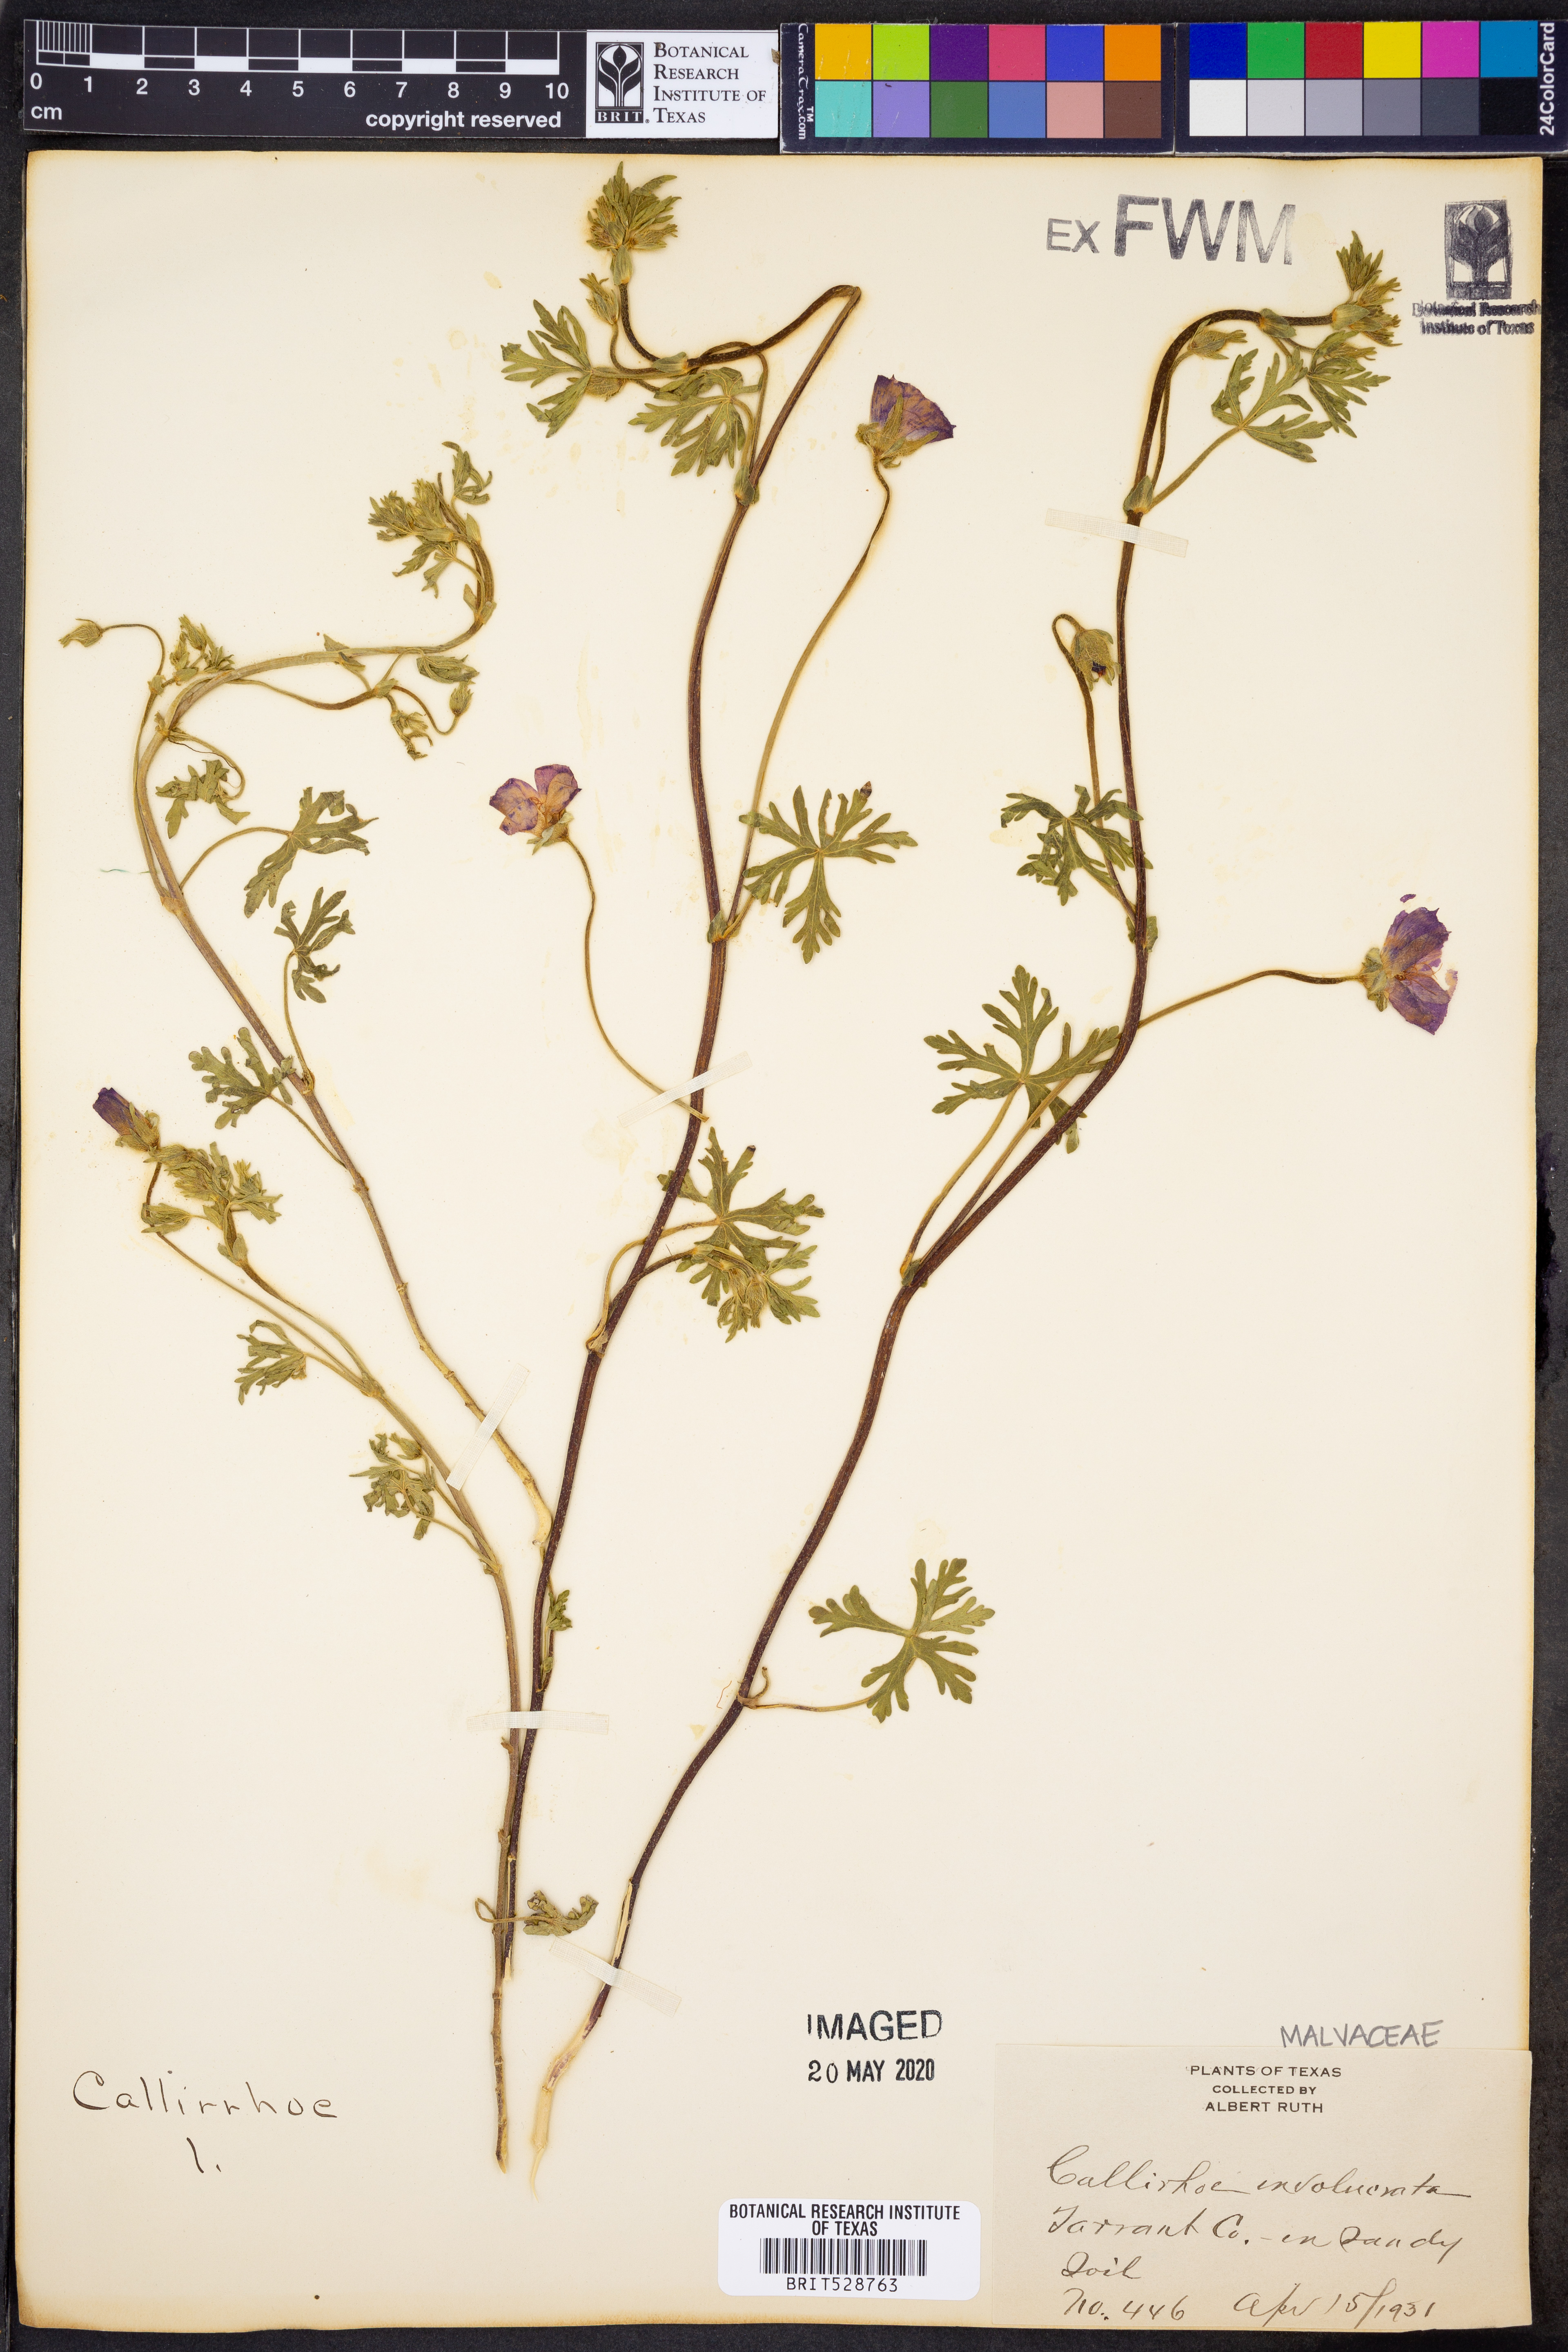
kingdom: Plantae
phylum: Tracheophyta
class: Magnoliopsida
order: Malvales
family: Malvaceae
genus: Callirhoe
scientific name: Callirhoe involucrata
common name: Purple poppy-mallow
